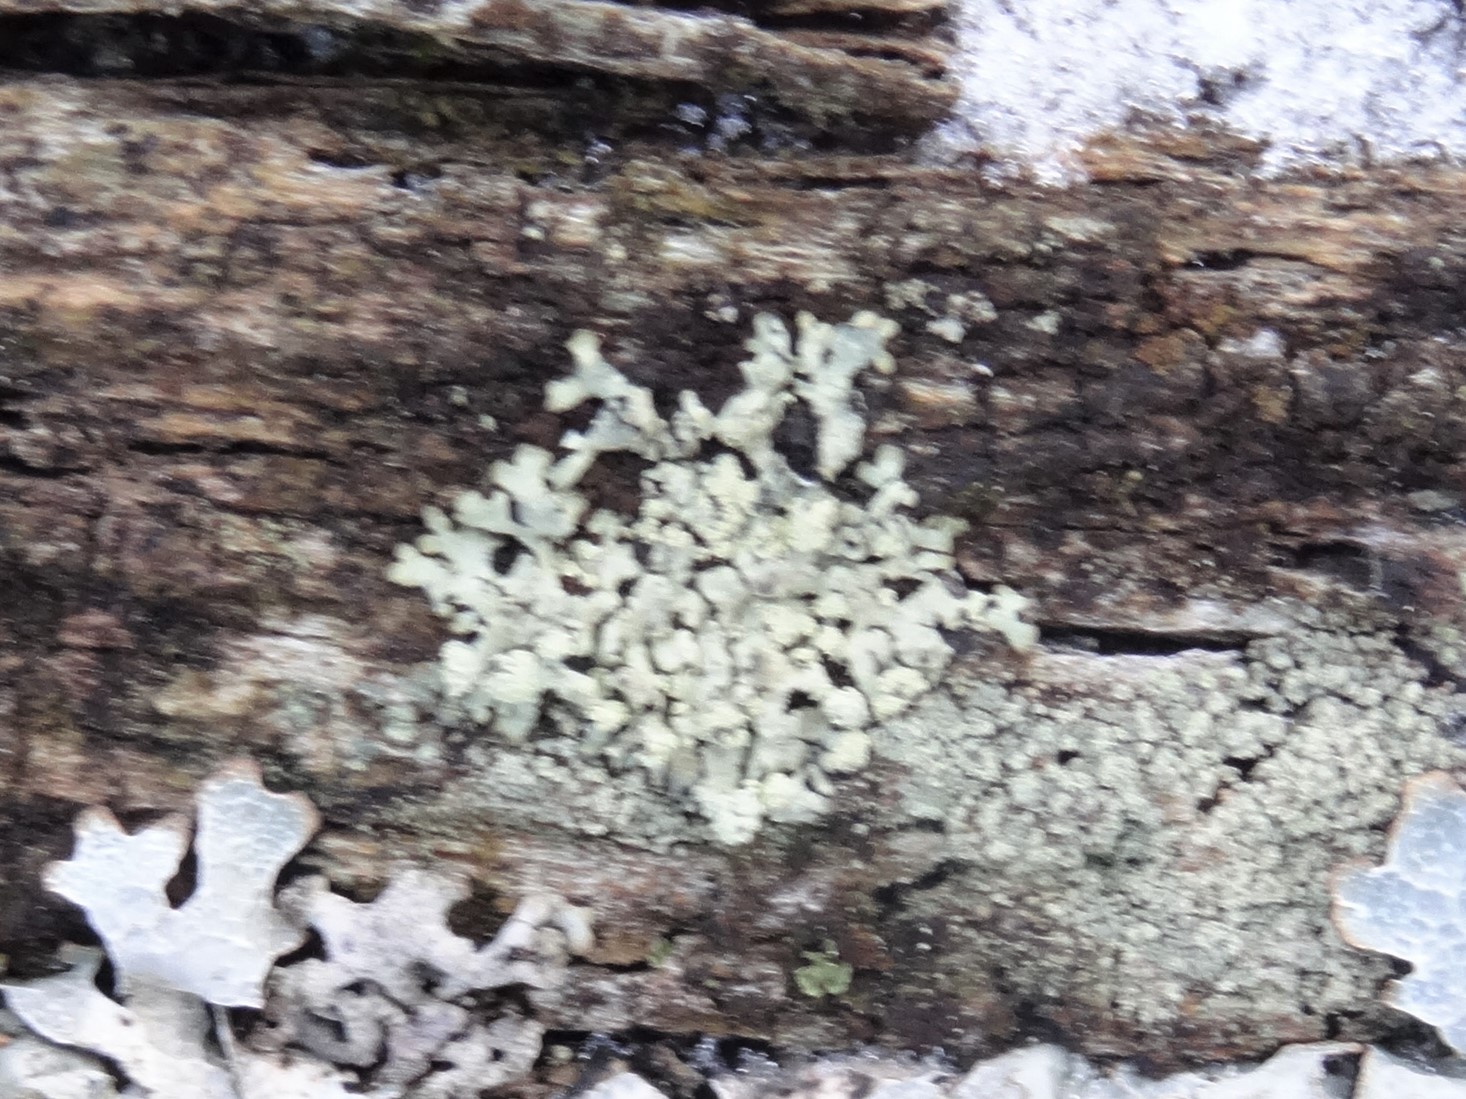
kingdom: Fungi
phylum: Ascomycota
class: Lecanoromycetes
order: Lecanorales
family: Parmeliaceae
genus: Parmeliopsis
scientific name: Parmeliopsis ambigua
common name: gul stolpelav
